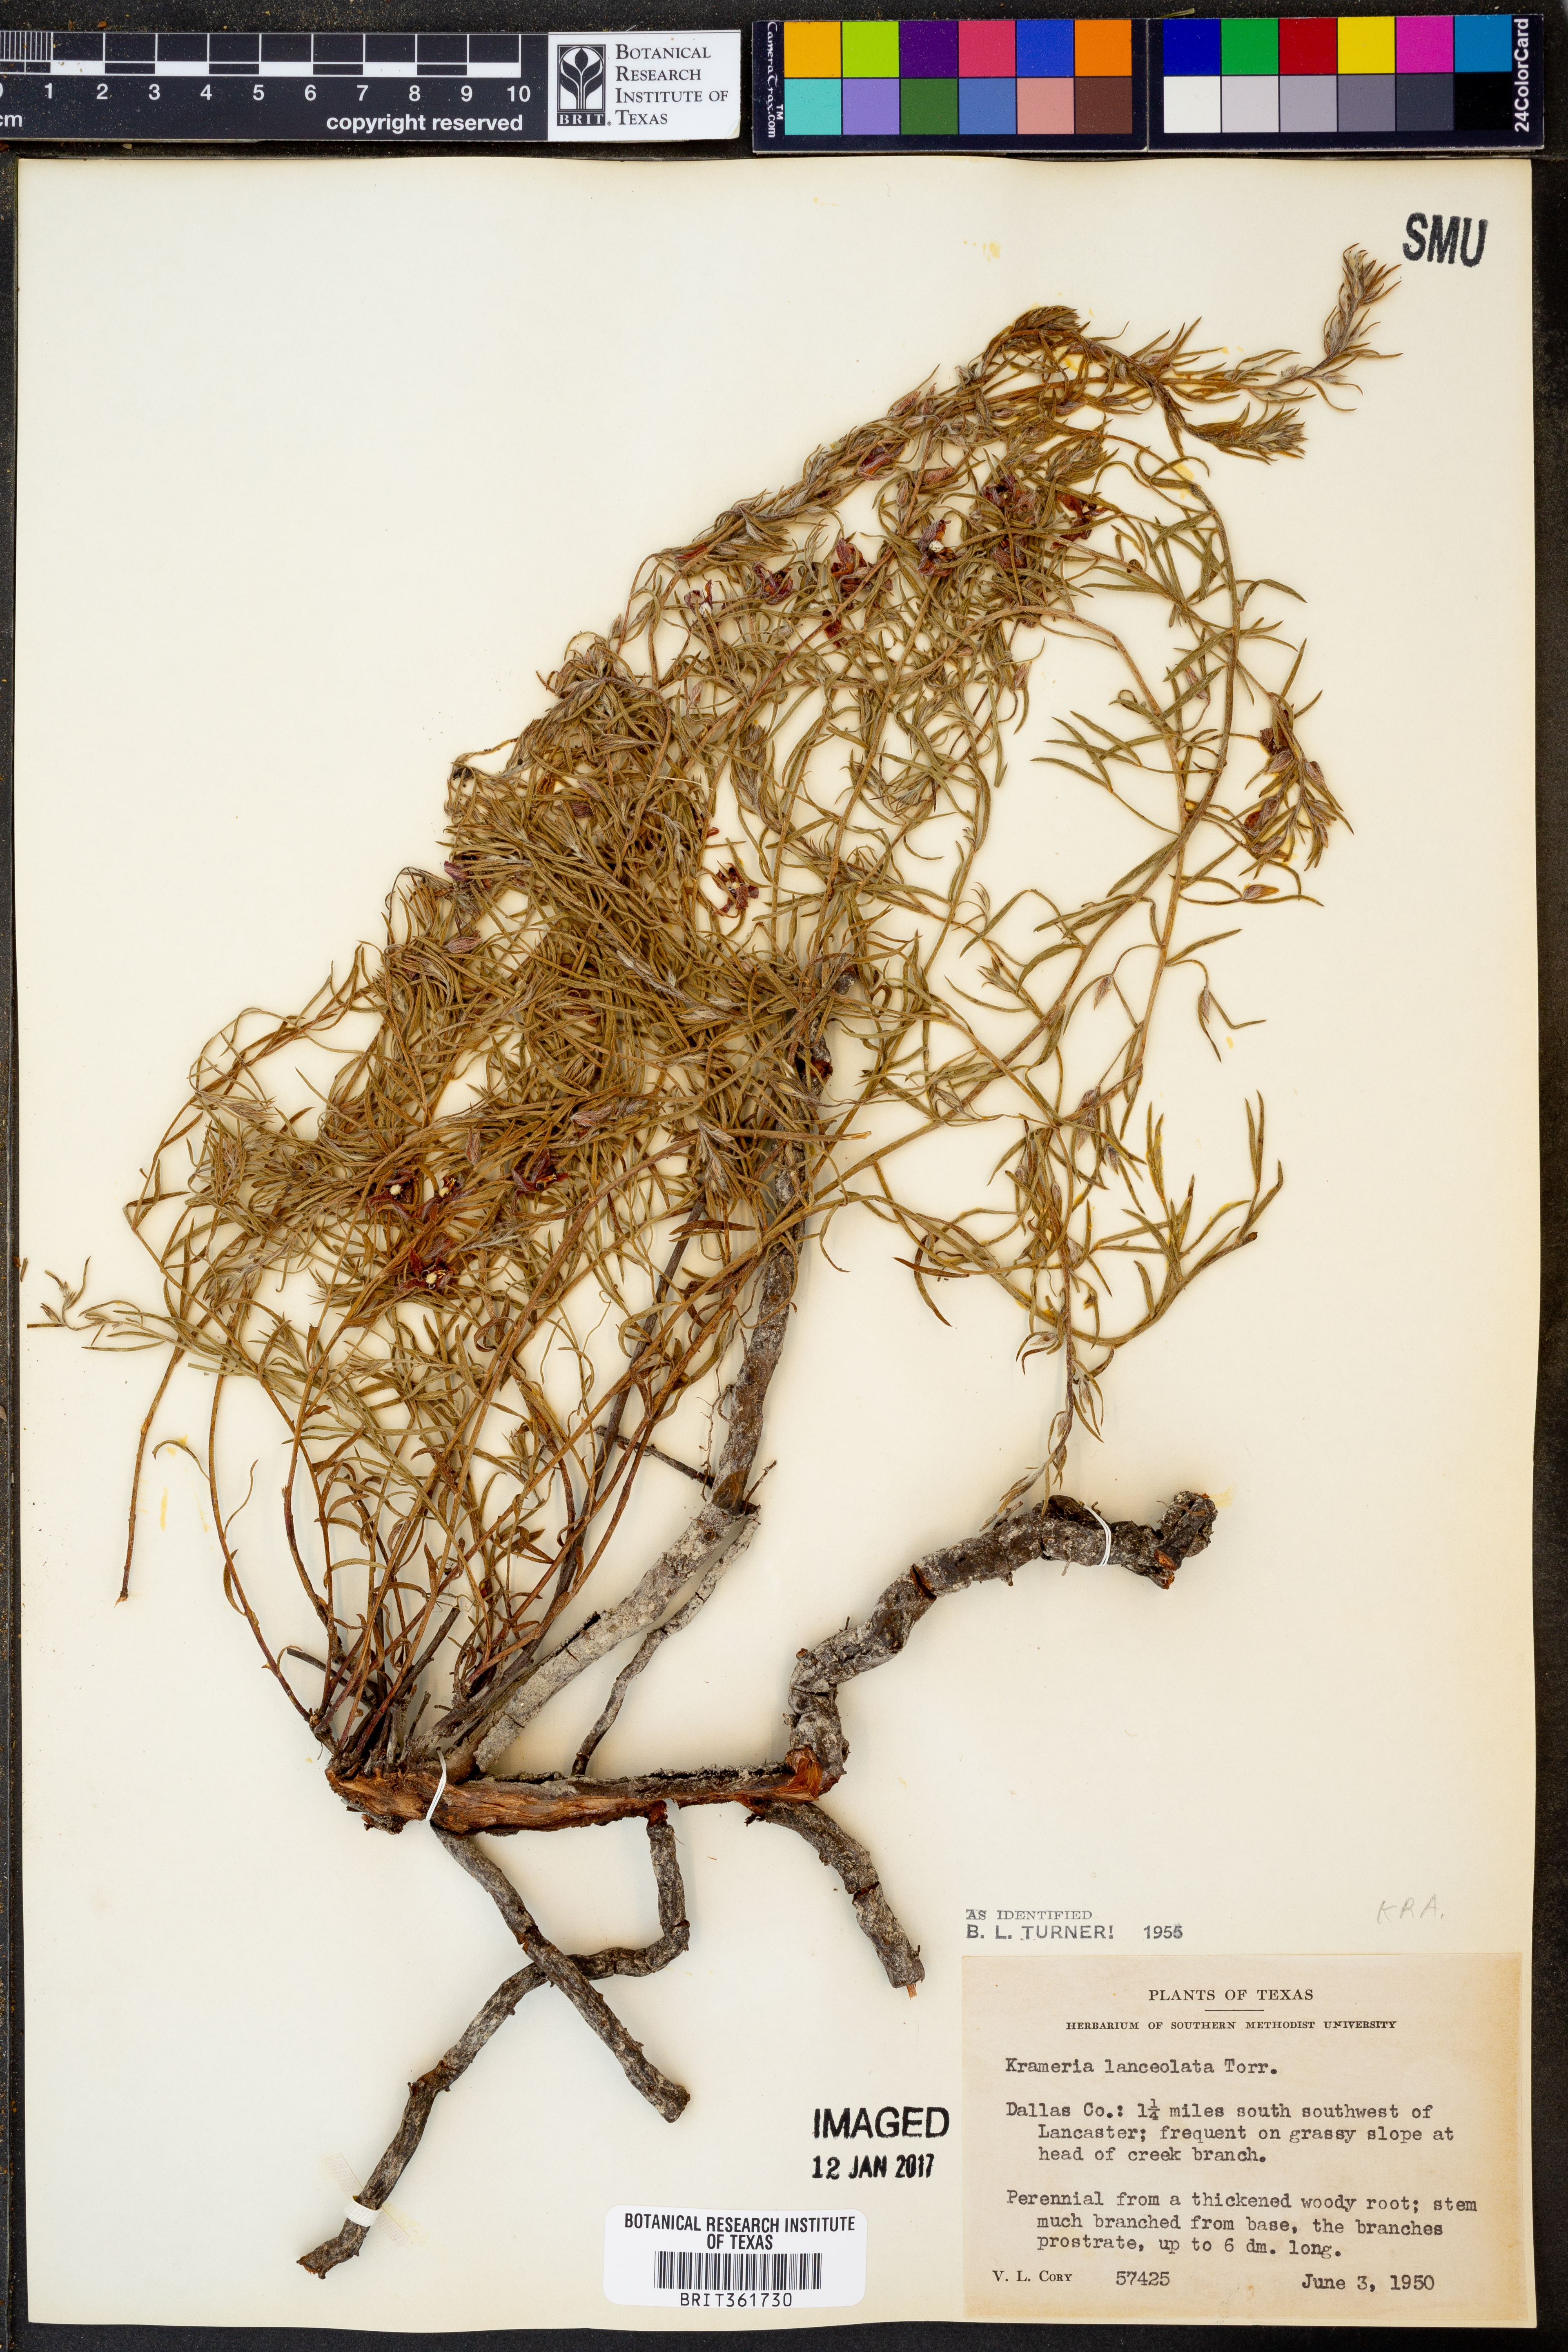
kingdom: Plantae
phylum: Tracheophyta
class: Magnoliopsida
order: Zygophyllales
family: Krameriaceae
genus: Krameria
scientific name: Krameria lanceolata
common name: Ratany
